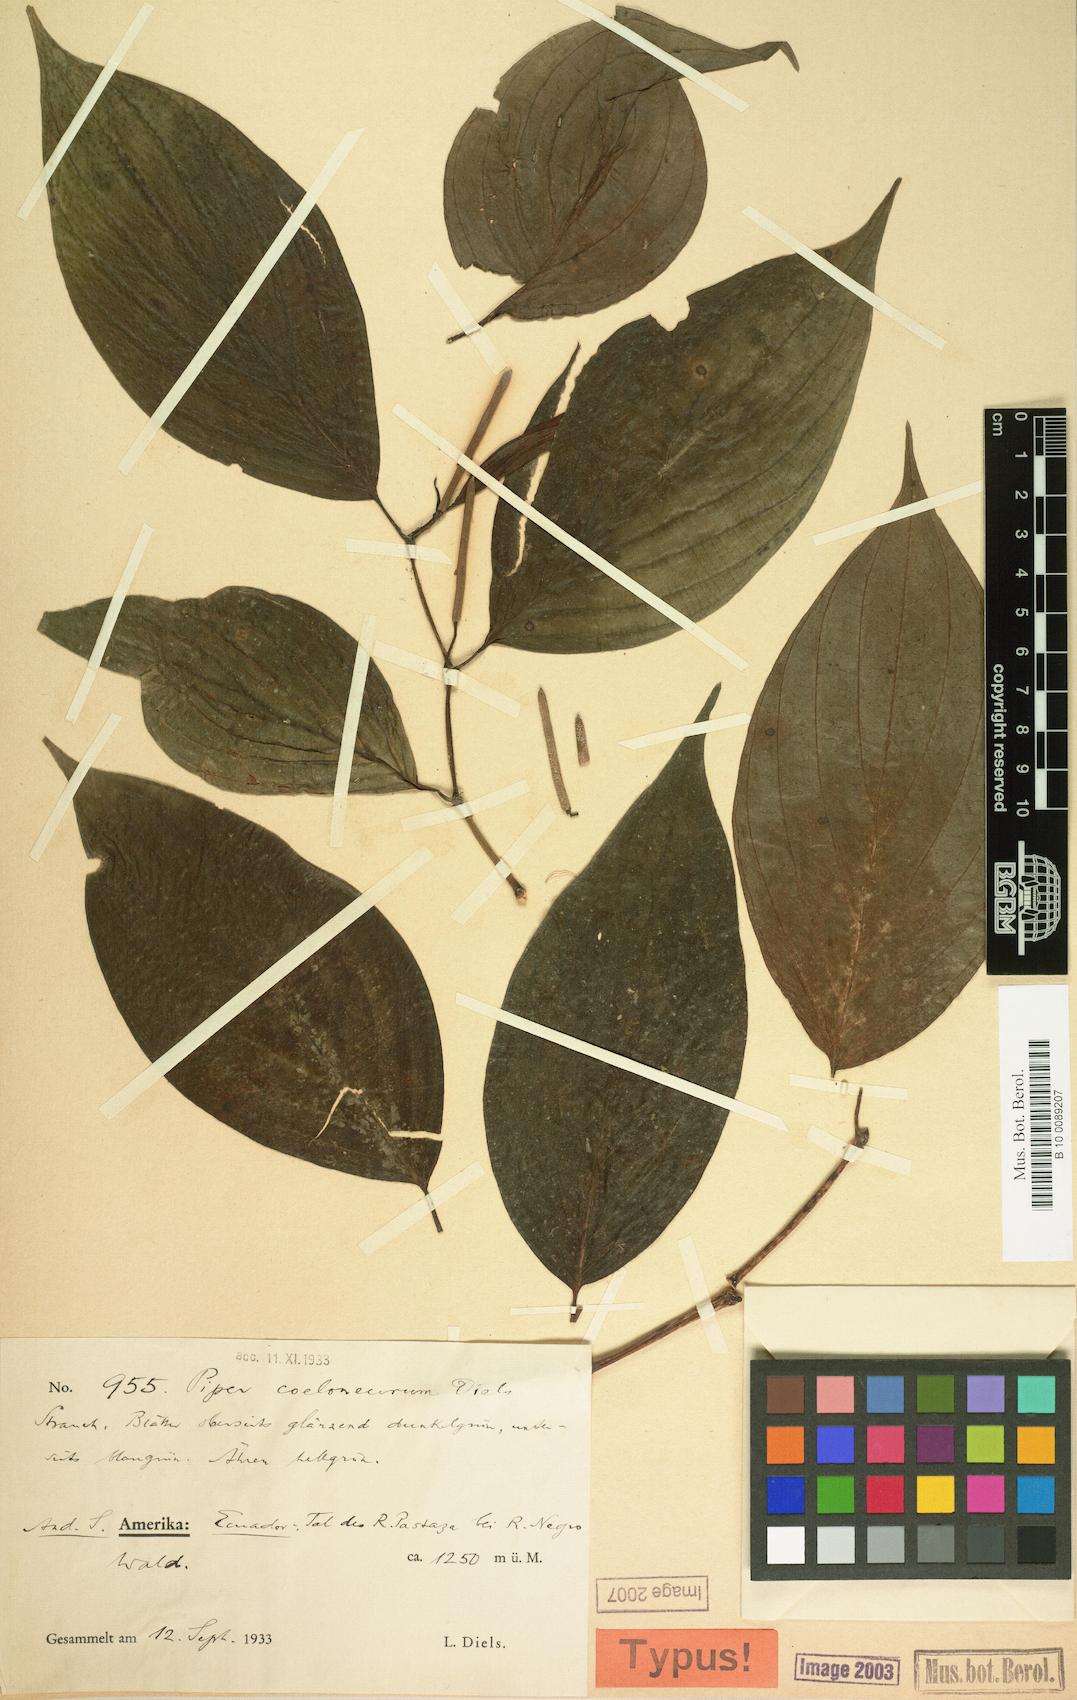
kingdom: Plantae
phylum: Tracheophyta
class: Magnoliopsida
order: Piperales
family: Piperaceae
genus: Piper
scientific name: Piper coeloneurum
